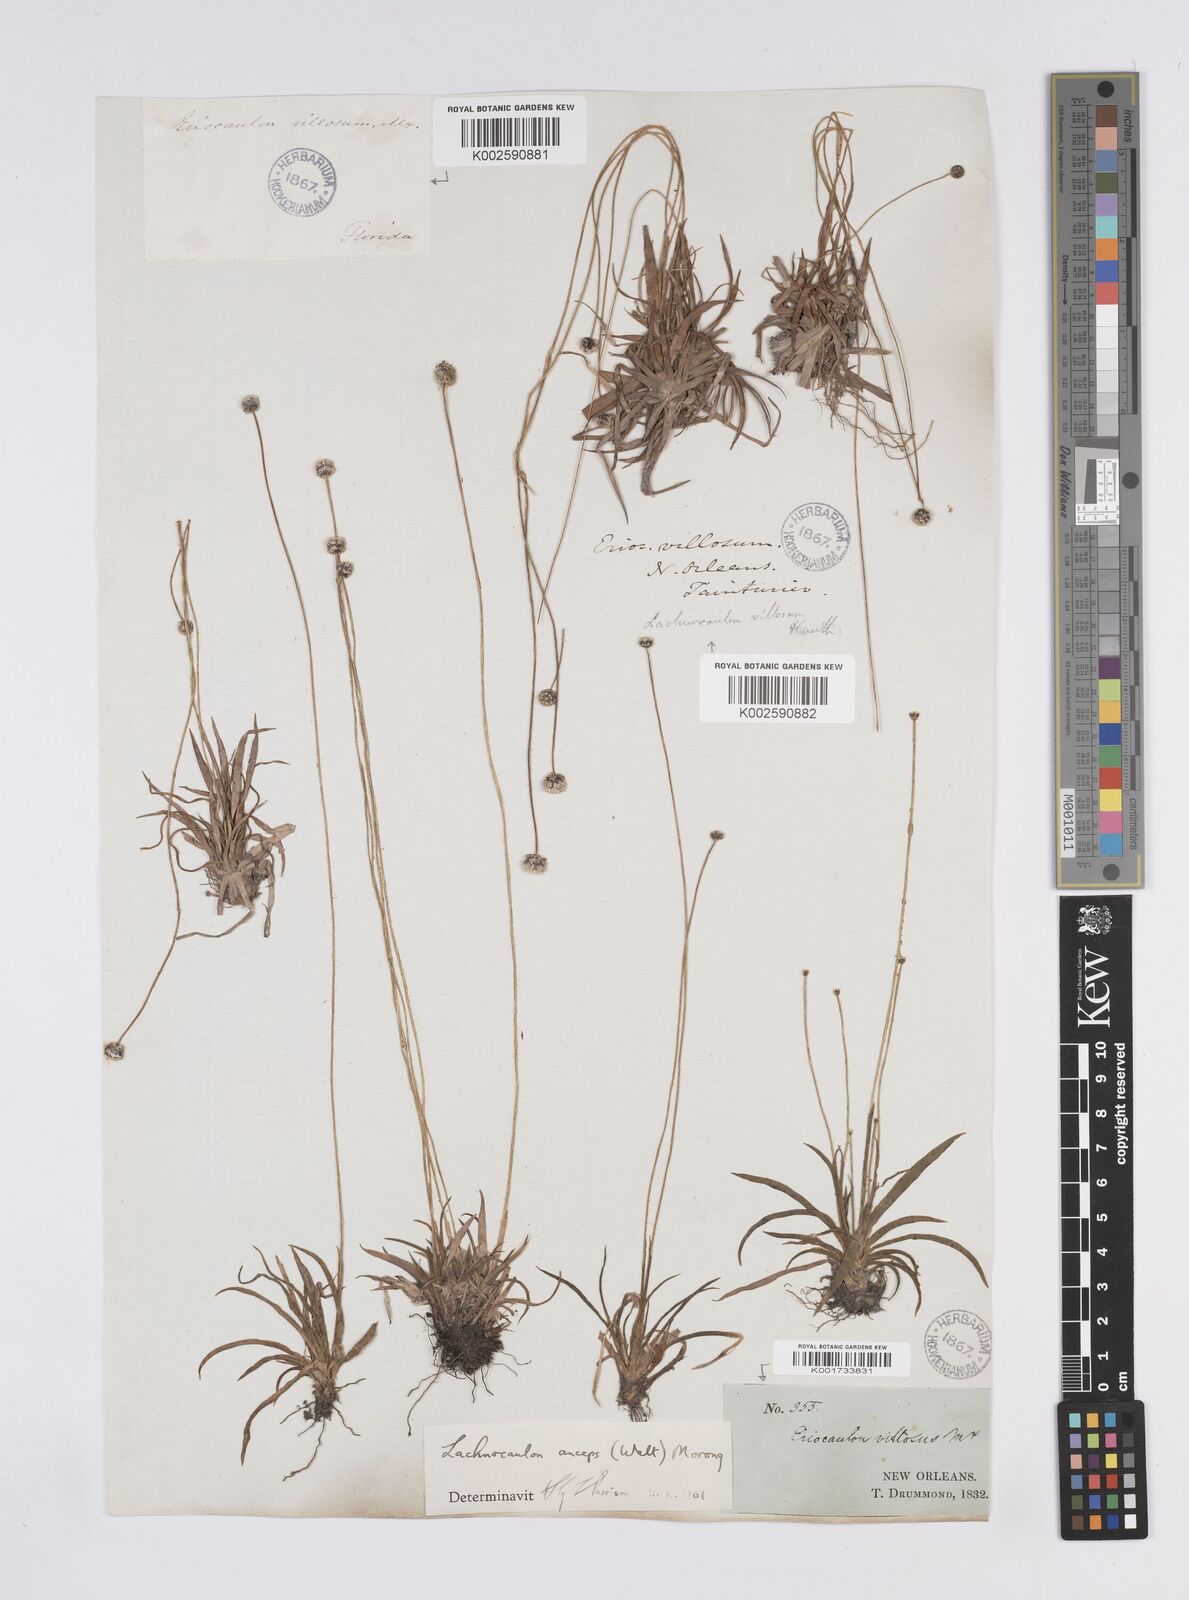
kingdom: Plantae
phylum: Tracheophyta
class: Liliopsida
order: Poales
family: Eriocaulaceae
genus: Paepalanthus
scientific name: Paepalanthus anceps
